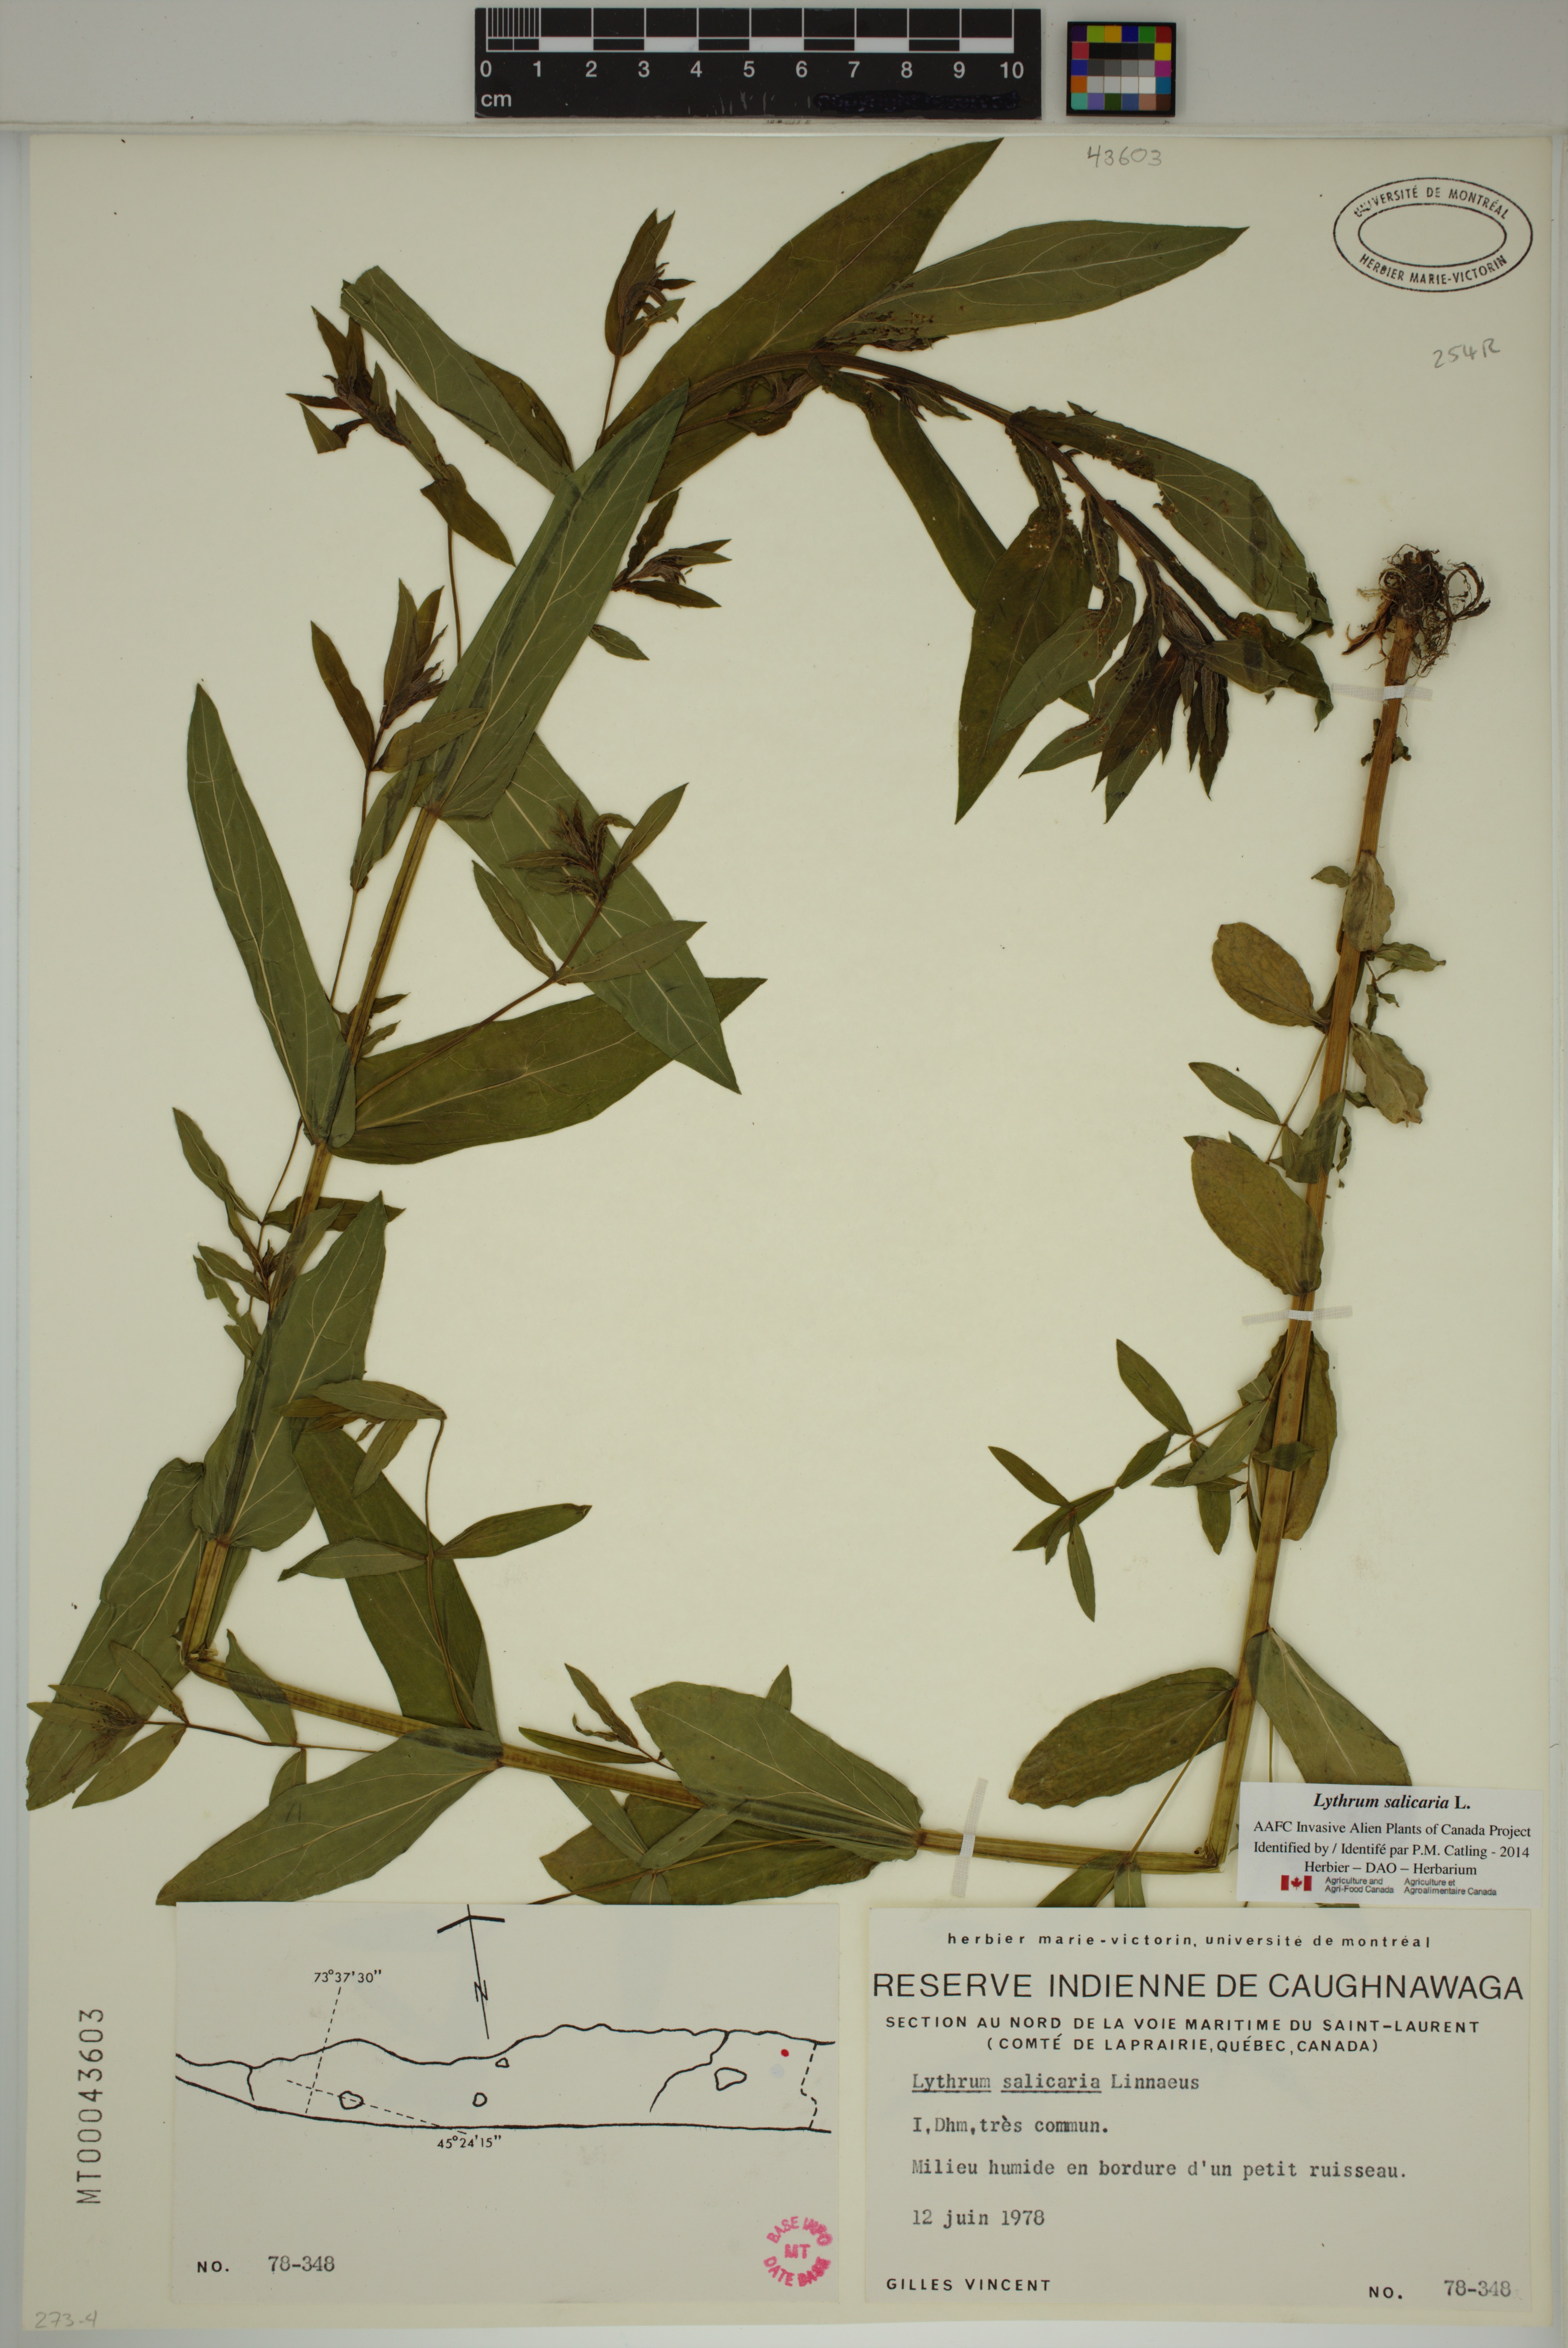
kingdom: Plantae
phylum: Tracheophyta
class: Magnoliopsida
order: Myrtales
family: Lythraceae
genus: Lythrum
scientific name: Lythrum salicaria
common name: Purple loosestrife
